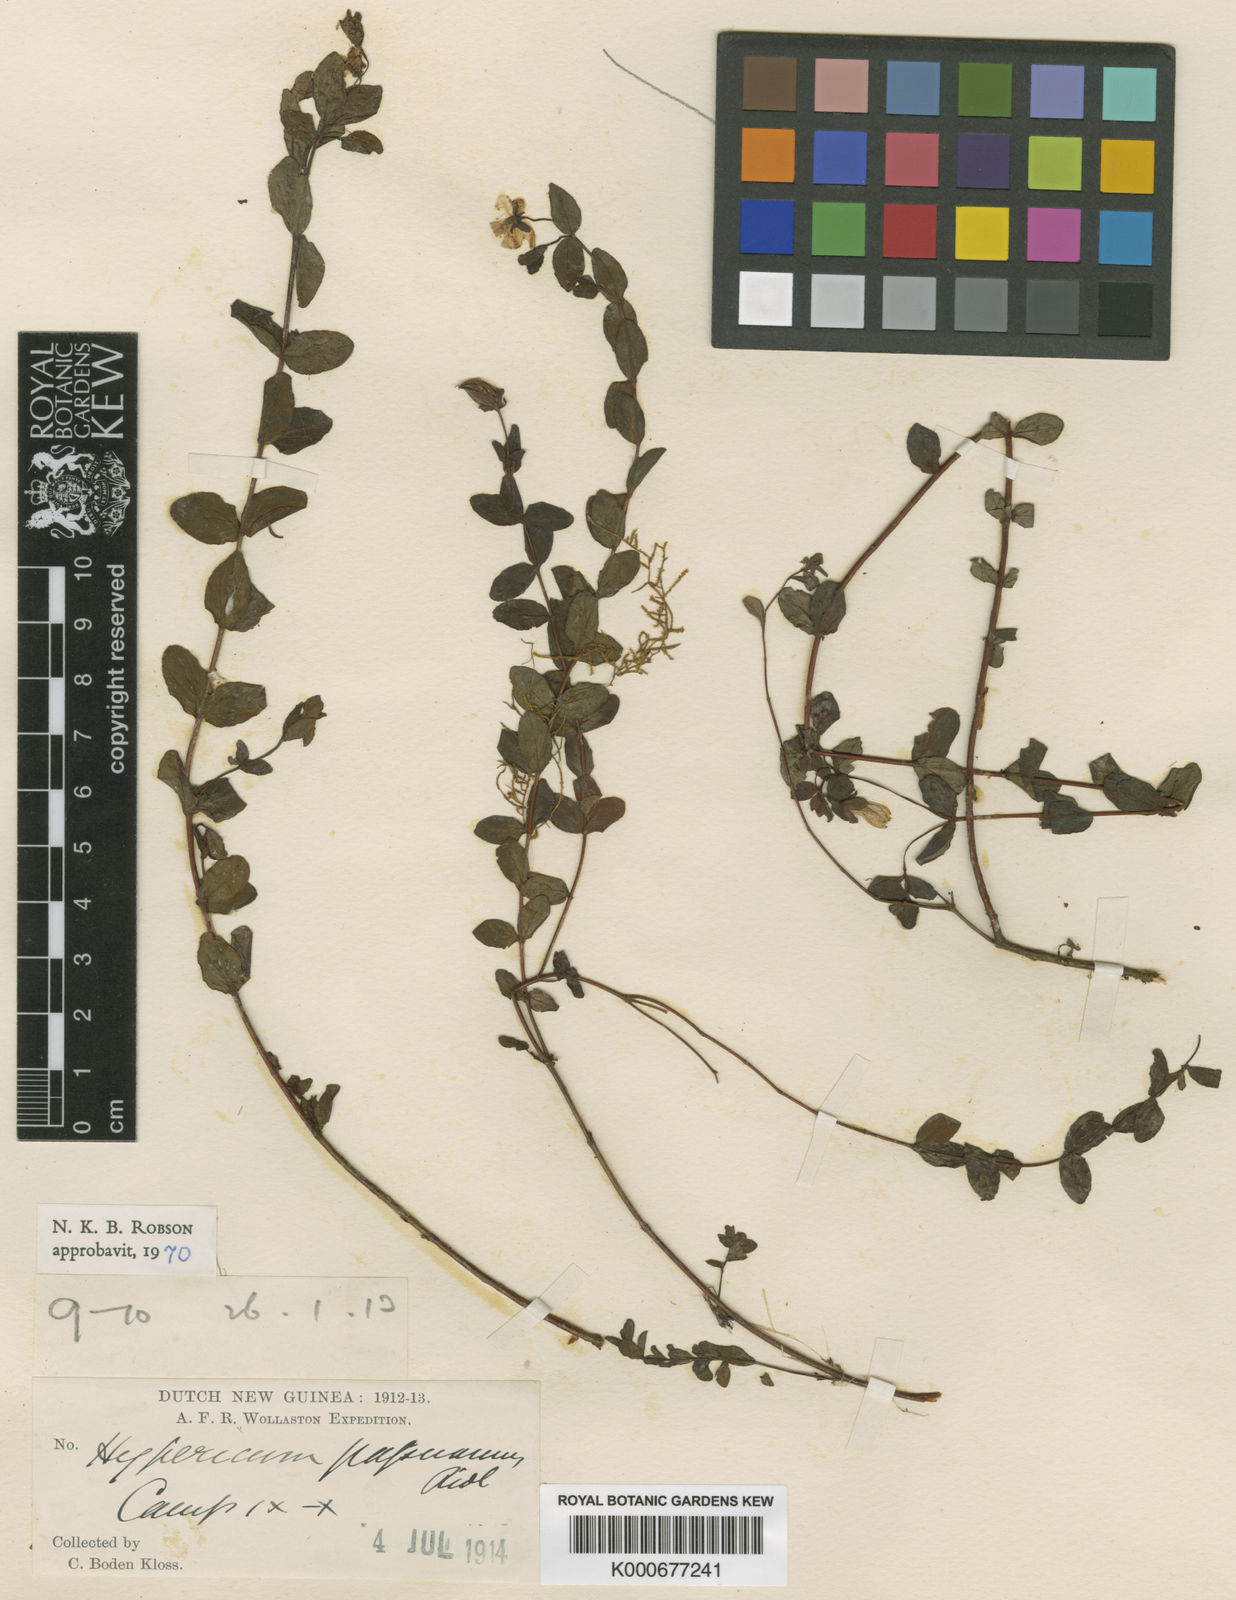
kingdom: Plantae
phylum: Tracheophyta
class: Magnoliopsida
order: Malpighiales
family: Hypericaceae
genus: Hypericum
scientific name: Hypericum papuanum
